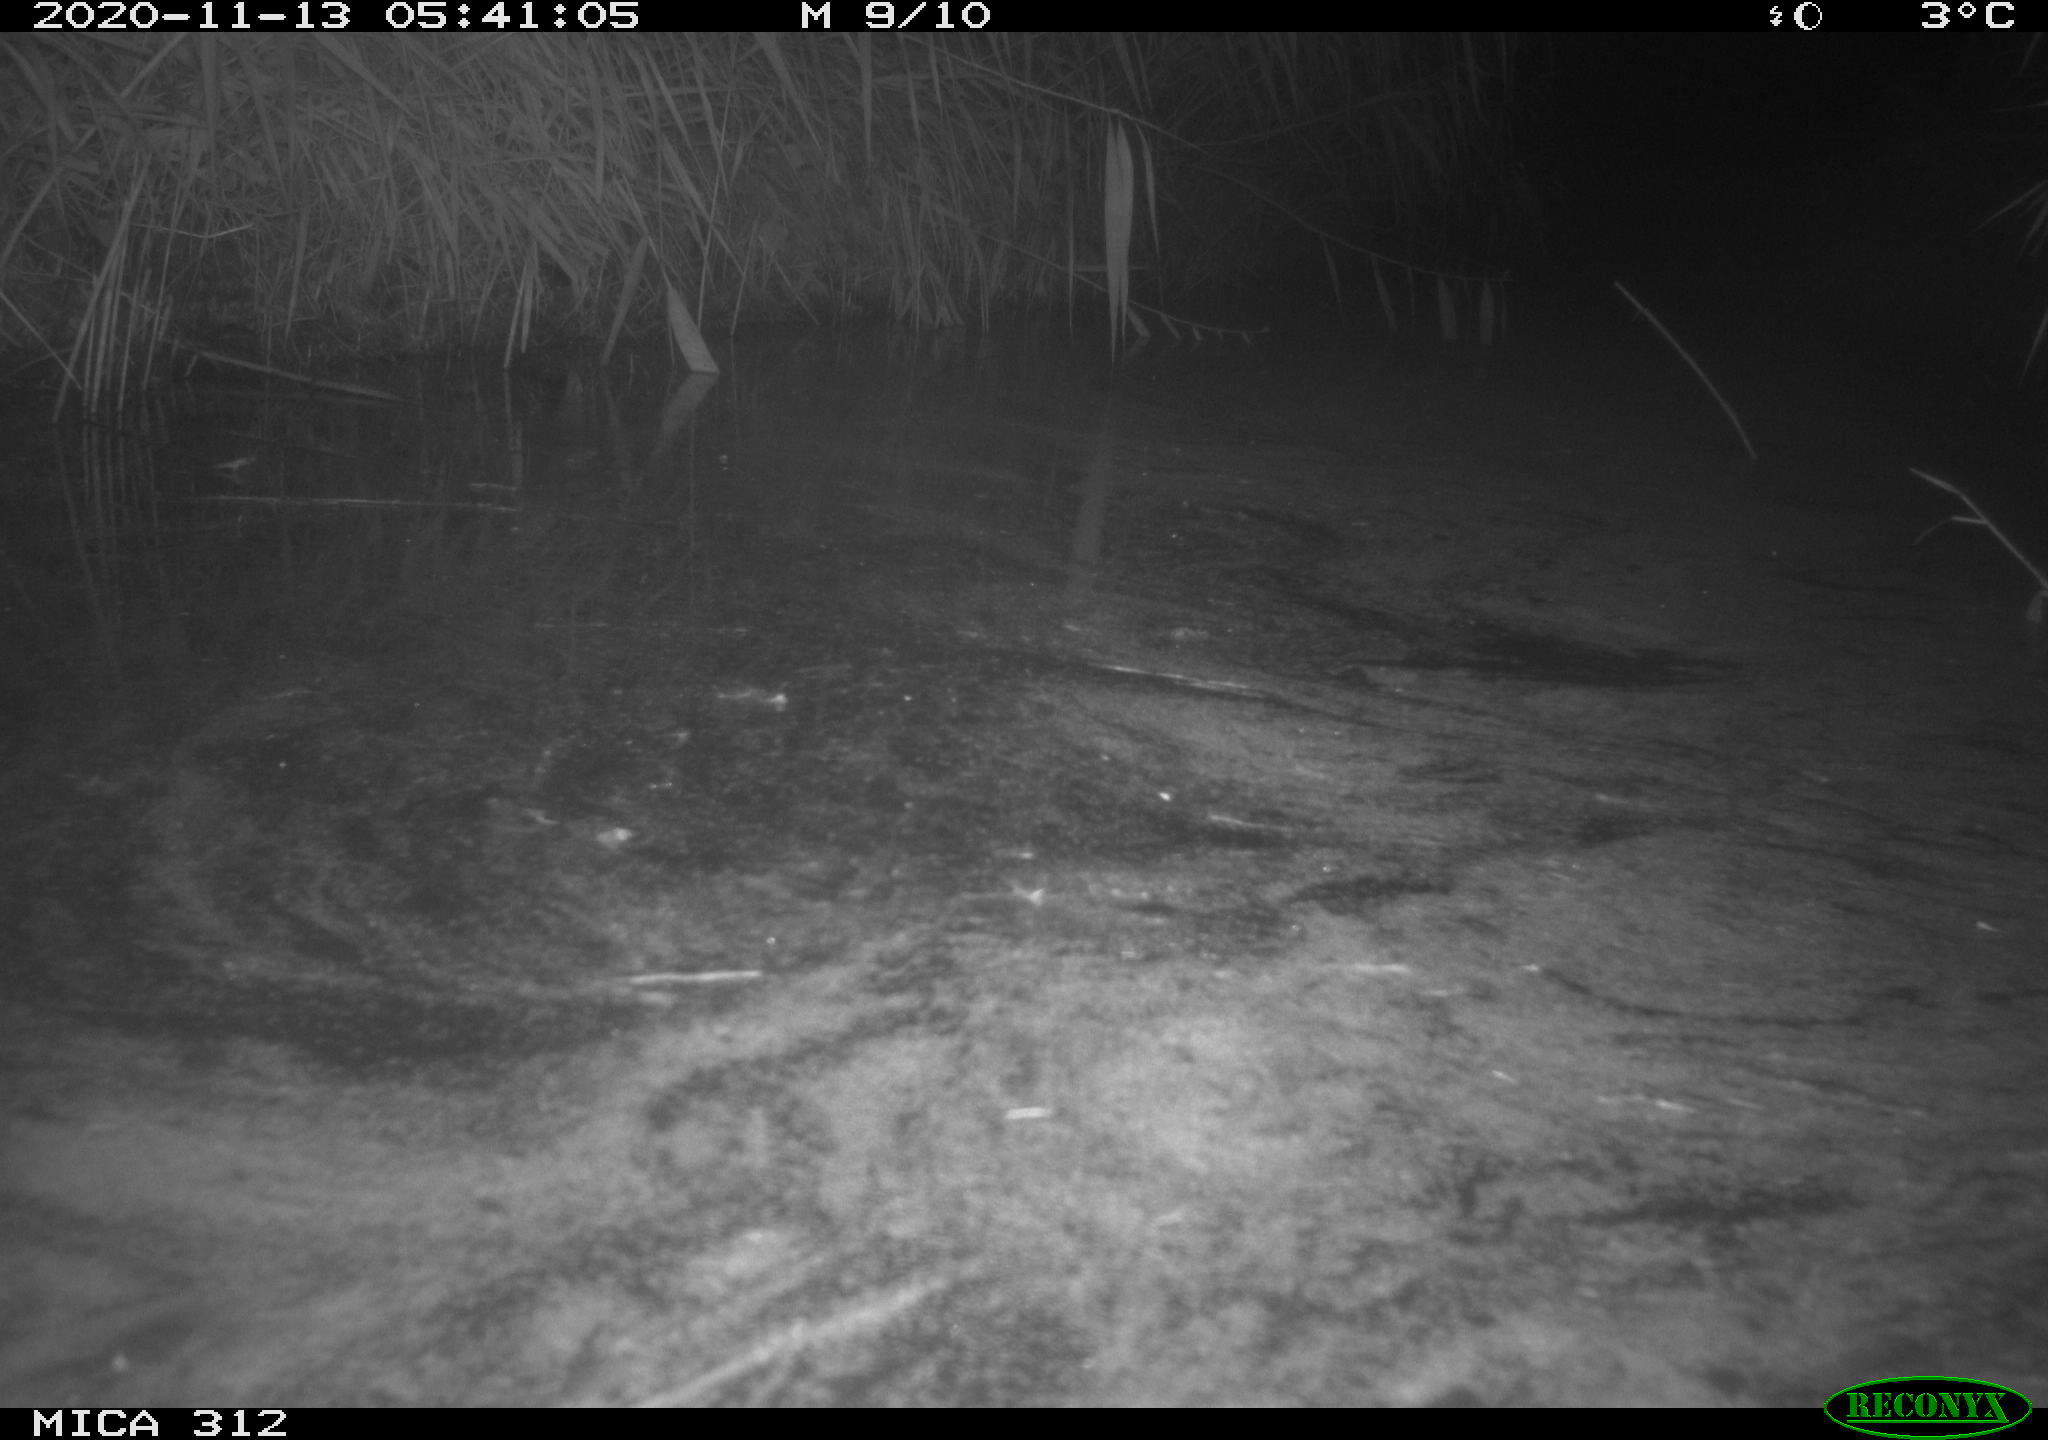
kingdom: Animalia
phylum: Chordata
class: Mammalia
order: Rodentia
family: Muridae
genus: Rattus
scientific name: Rattus norvegicus
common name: Brown rat
